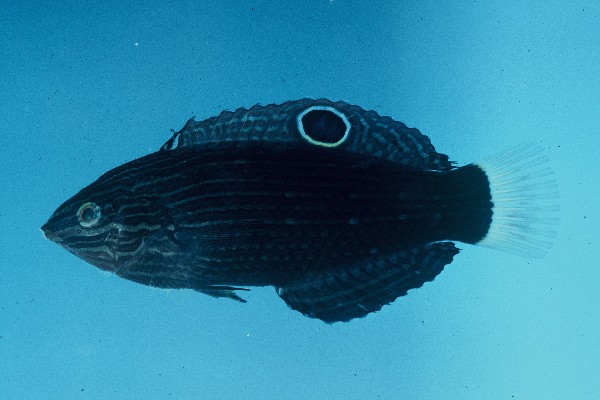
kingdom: Animalia
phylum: Chordata
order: Perciformes
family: Labridae
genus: Halichoeres
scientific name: Halichoeres marginatus
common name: Dusky wrasse
